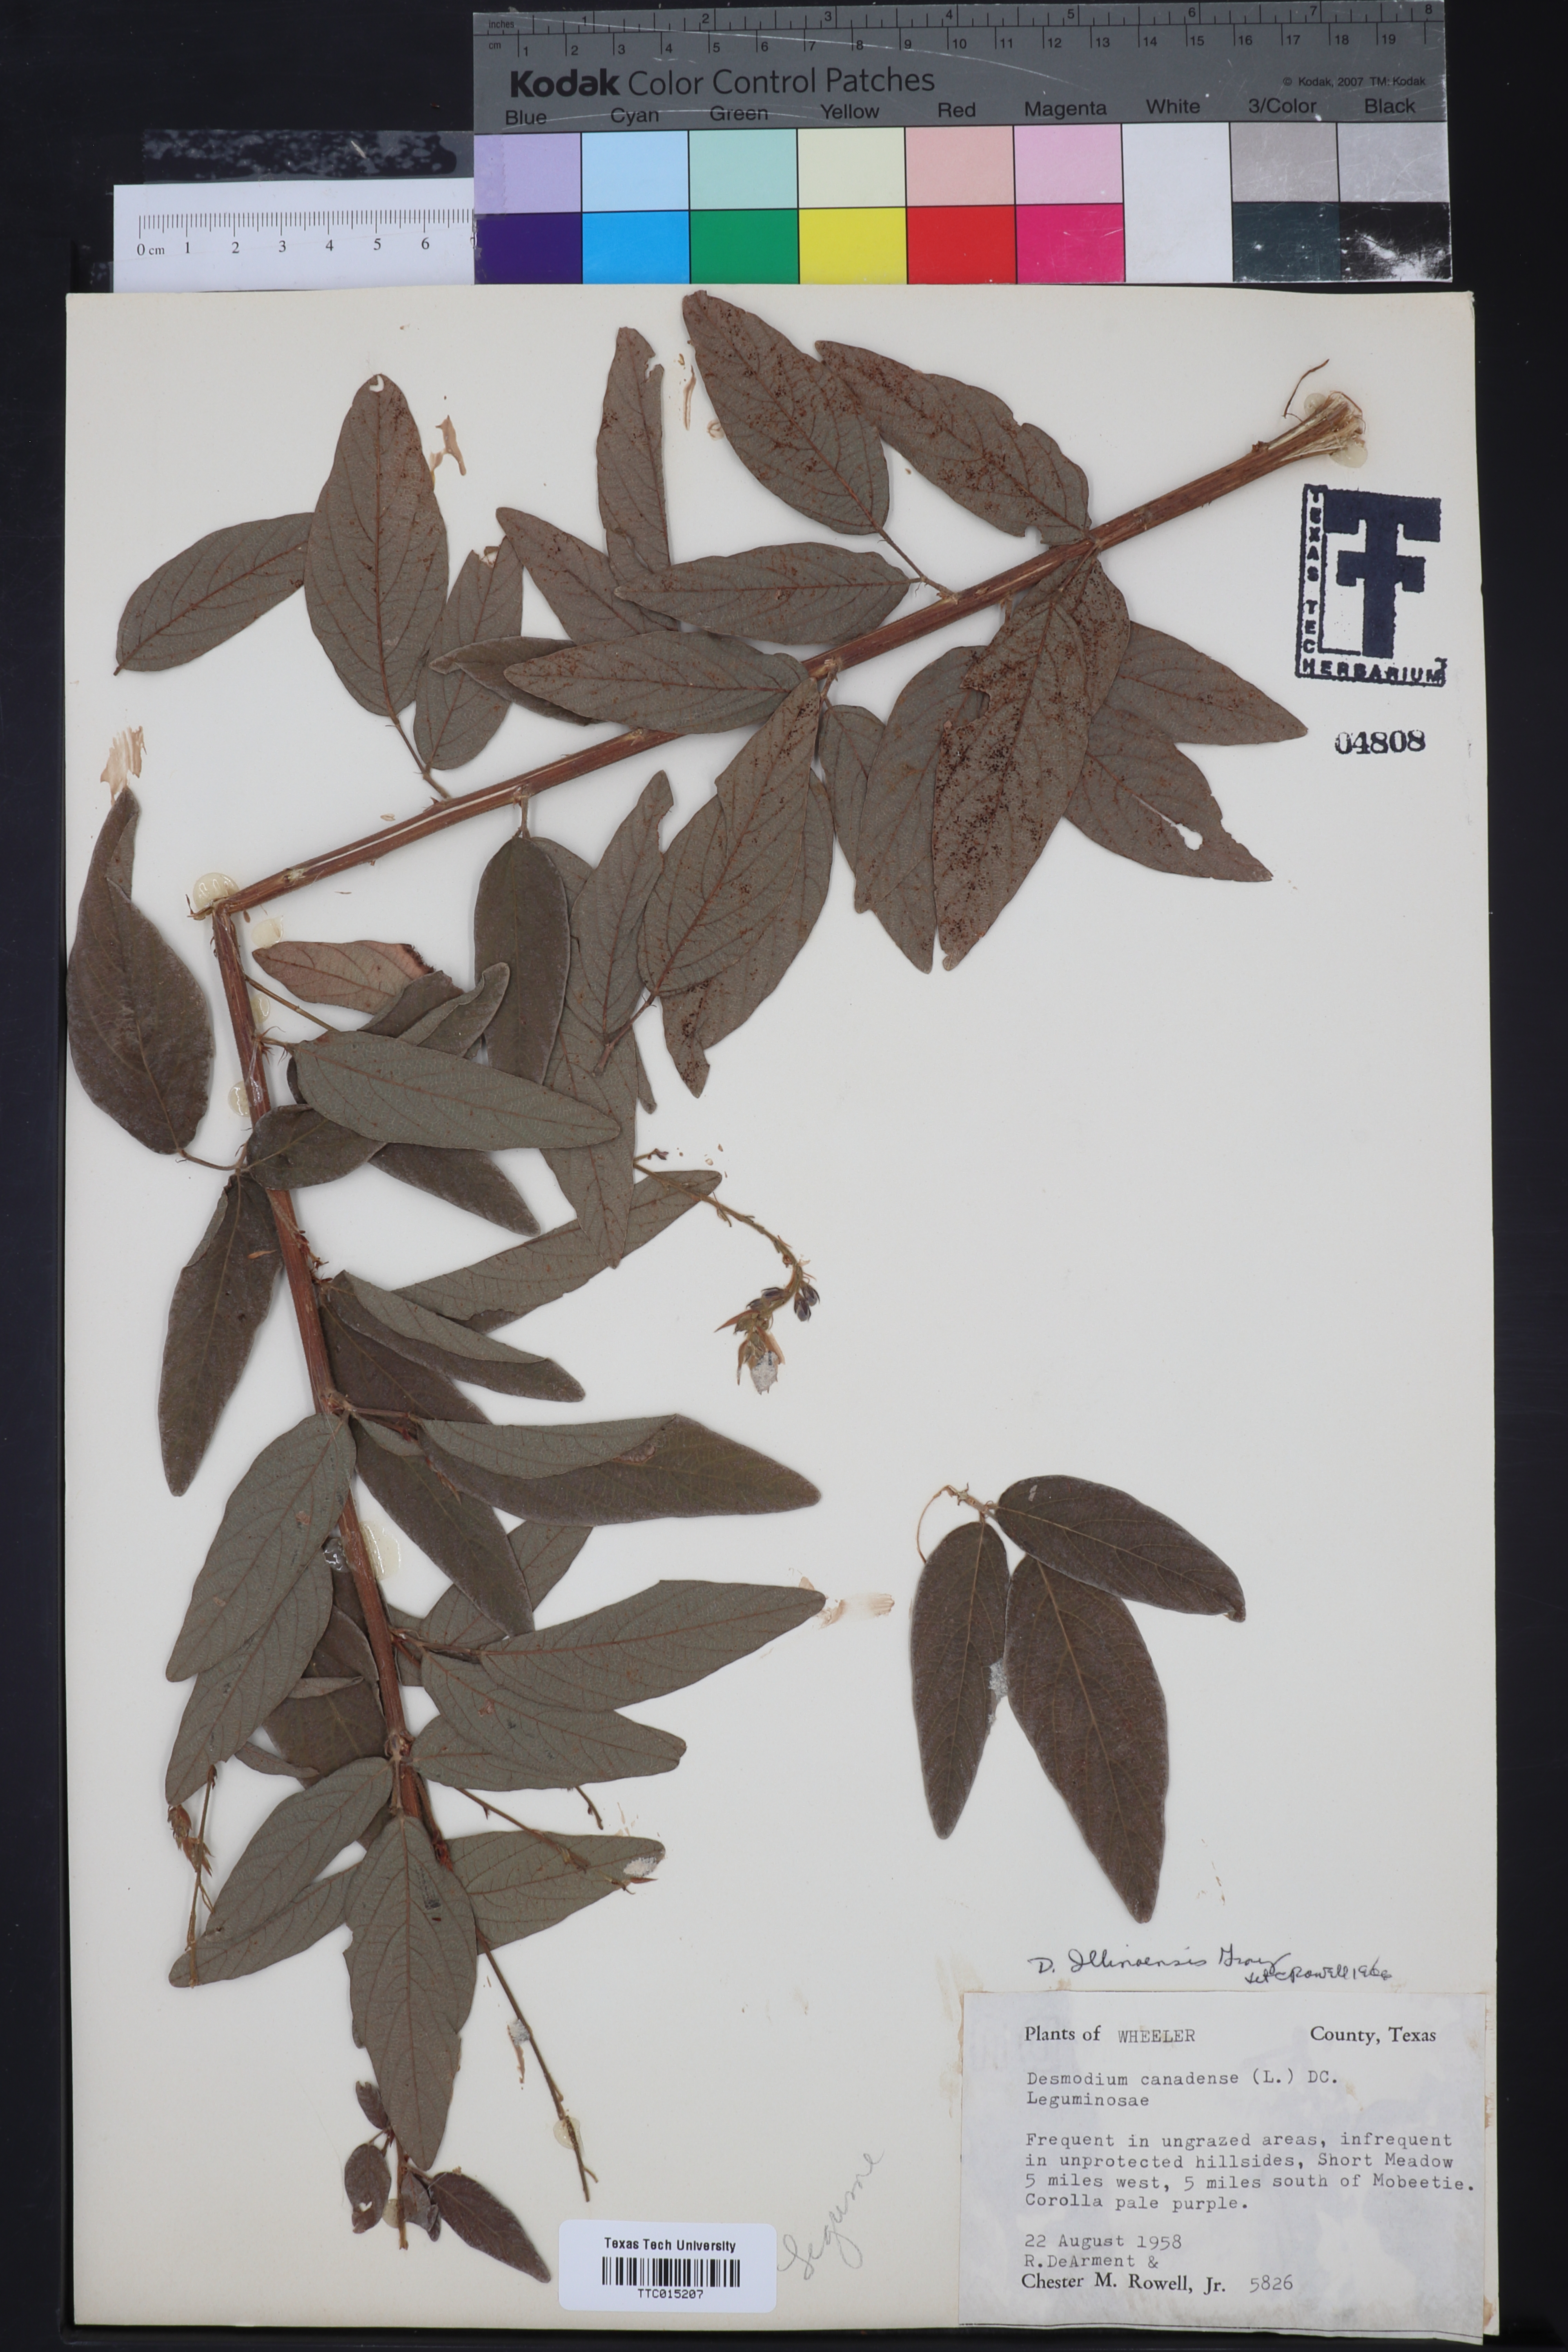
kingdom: Plantae
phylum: Tracheophyta
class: Magnoliopsida
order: Fabales
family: Fabaceae
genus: Desmodium
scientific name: Desmodium illinoense
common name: Illinois tick-clover
